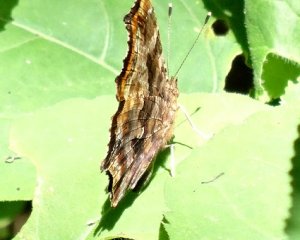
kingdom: Animalia
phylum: Arthropoda
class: Insecta
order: Lepidoptera
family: Nymphalidae
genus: Polygonia
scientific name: Polygonia comma
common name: Eastern Comma
